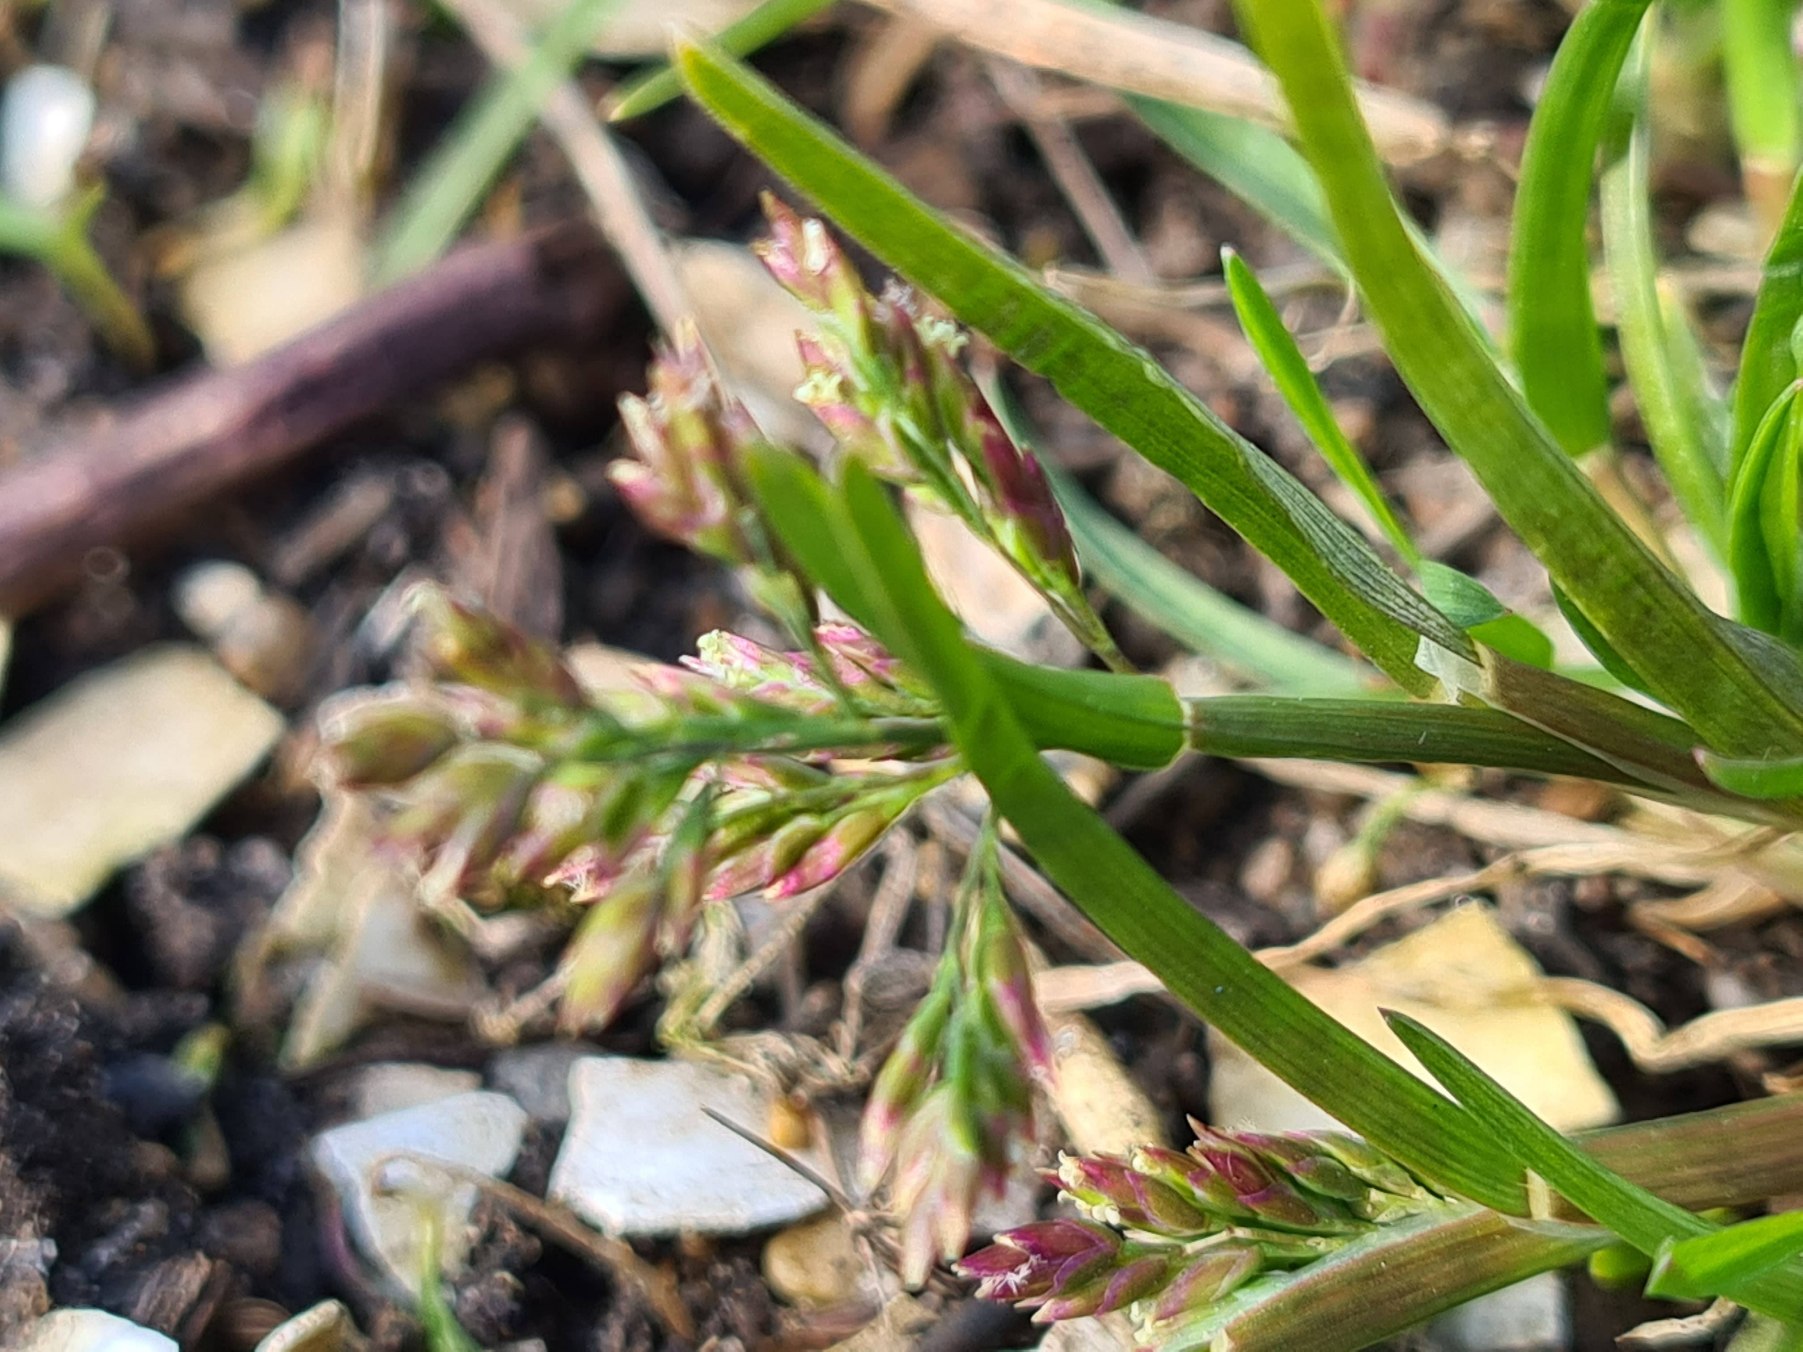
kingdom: Plantae
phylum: Tracheophyta
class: Liliopsida
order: Poales
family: Poaceae
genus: Poa
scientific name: Poa annua
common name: Enårig rapgræs
